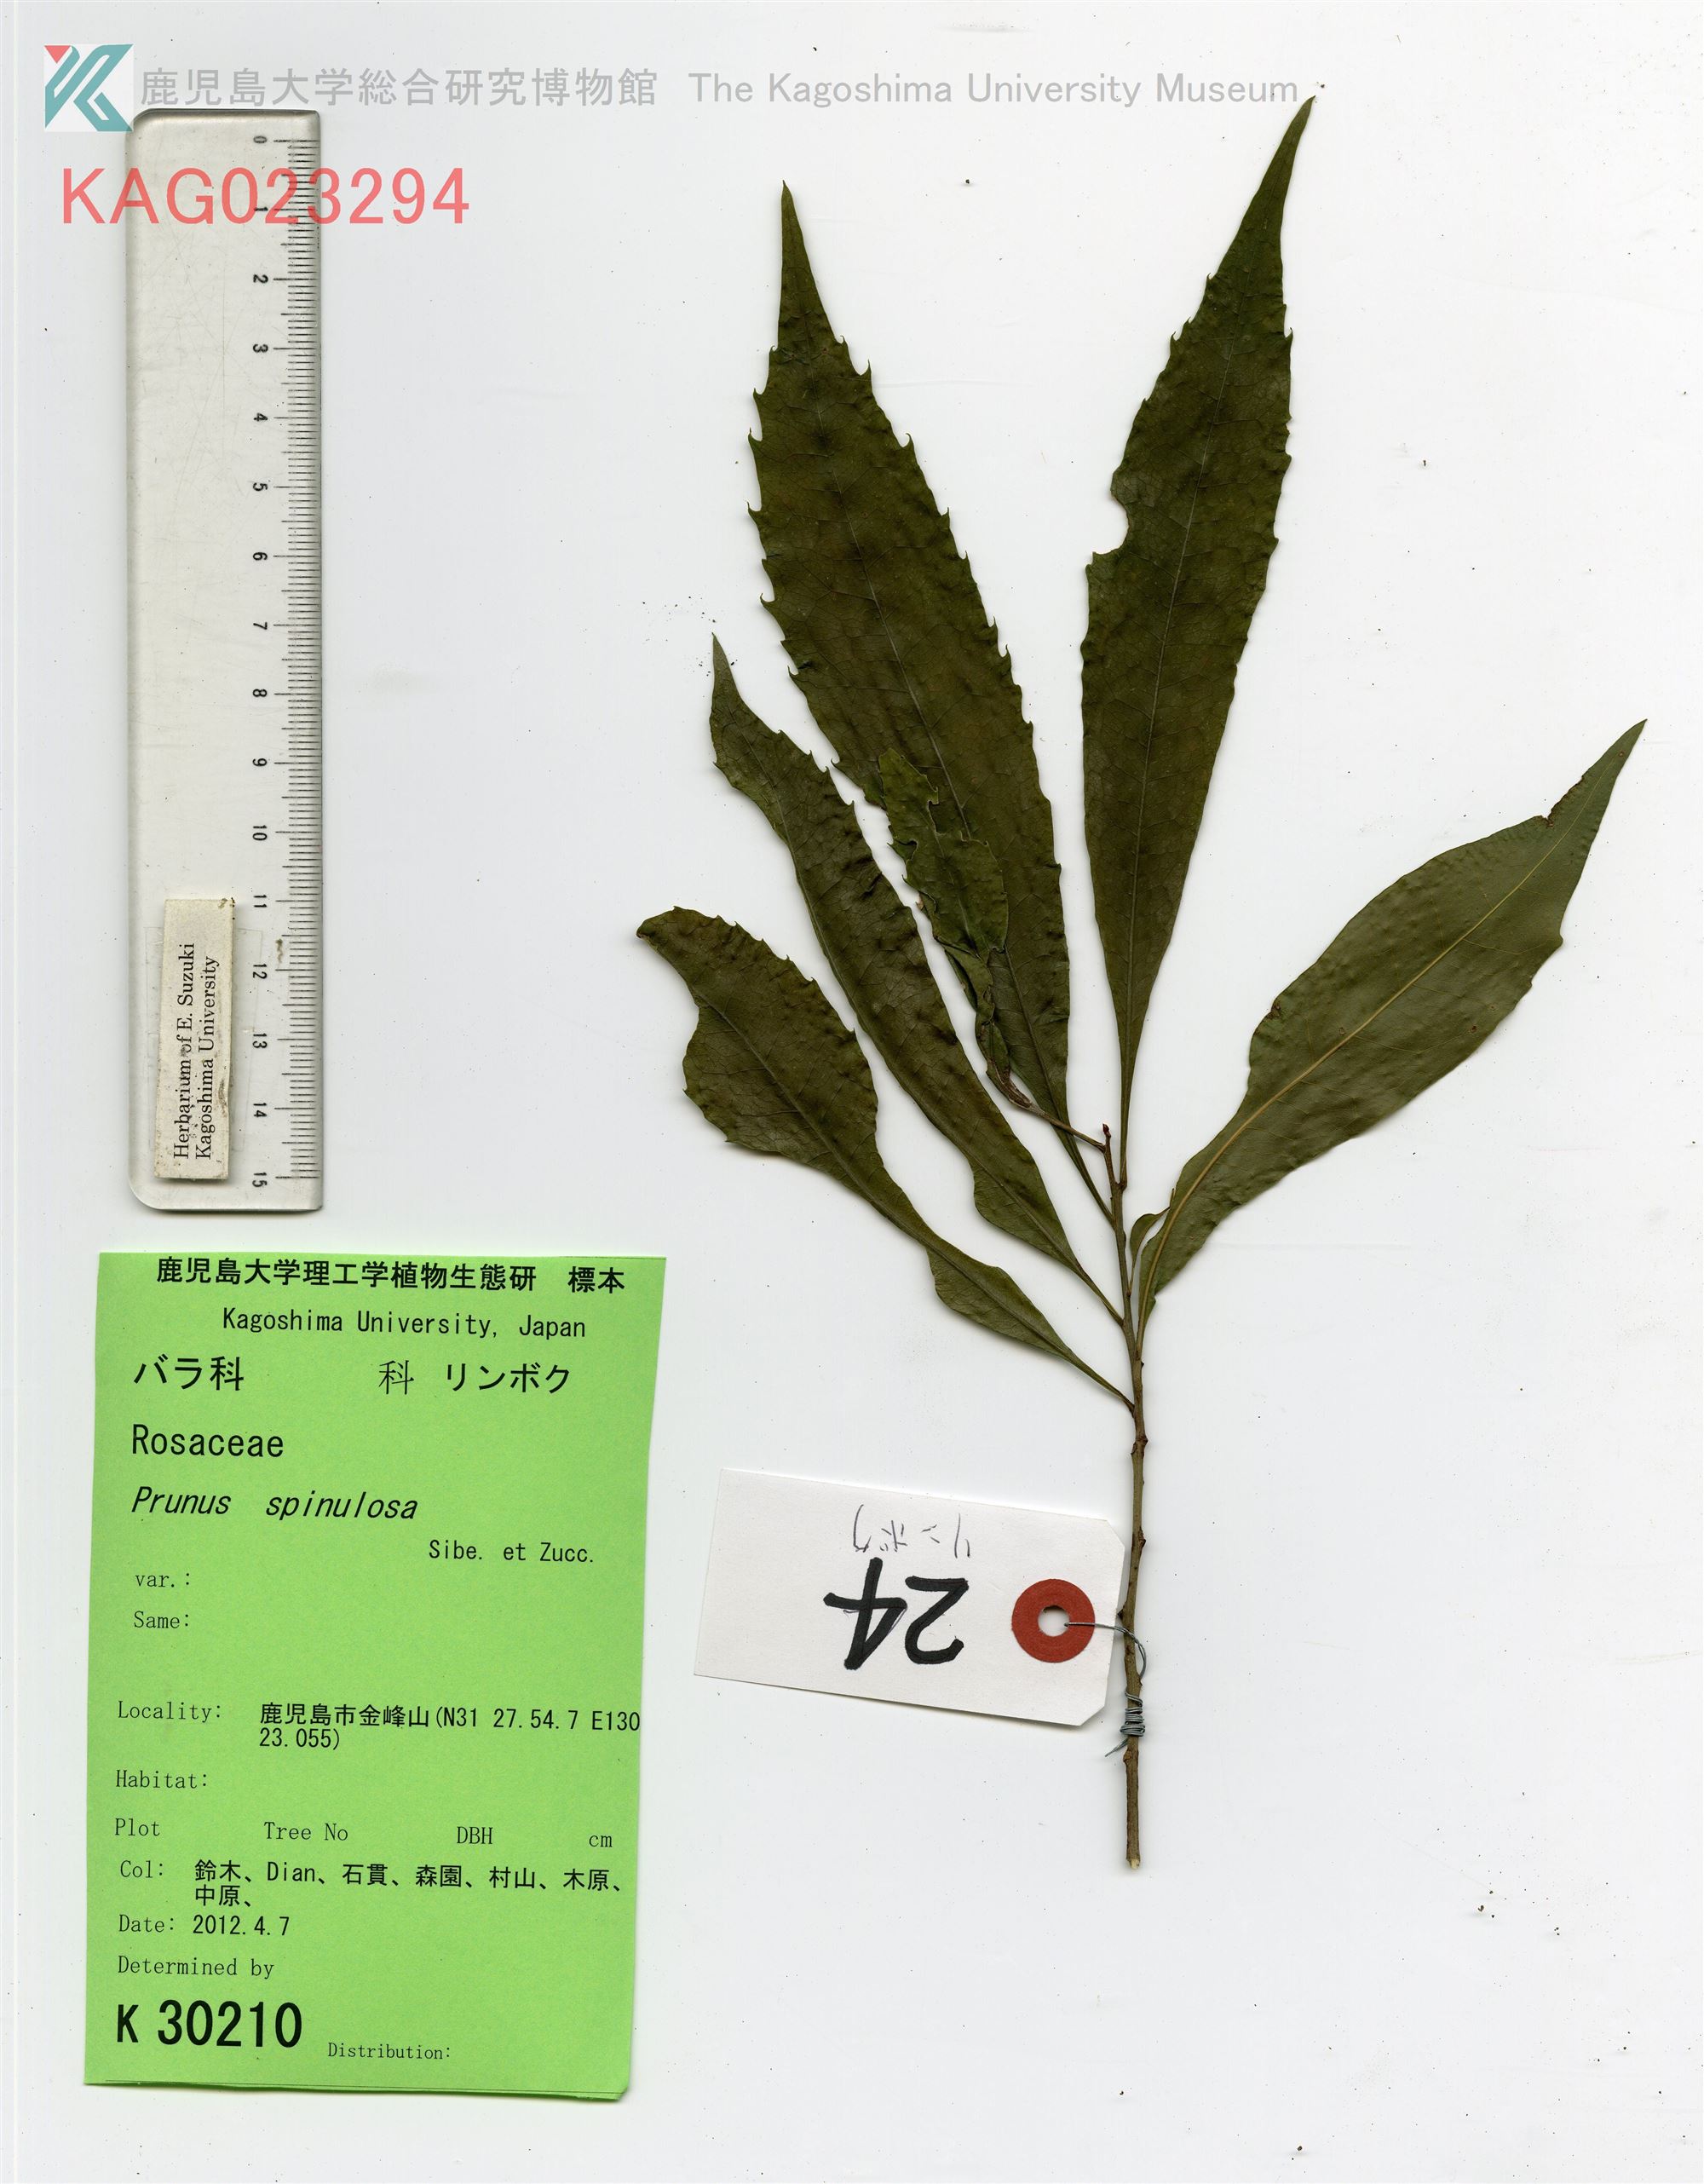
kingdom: Plantae
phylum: Tracheophyta
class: Magnoliopsida
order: Proteales
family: Proteaceae
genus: Helicia
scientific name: Helicia cochinchinensis
